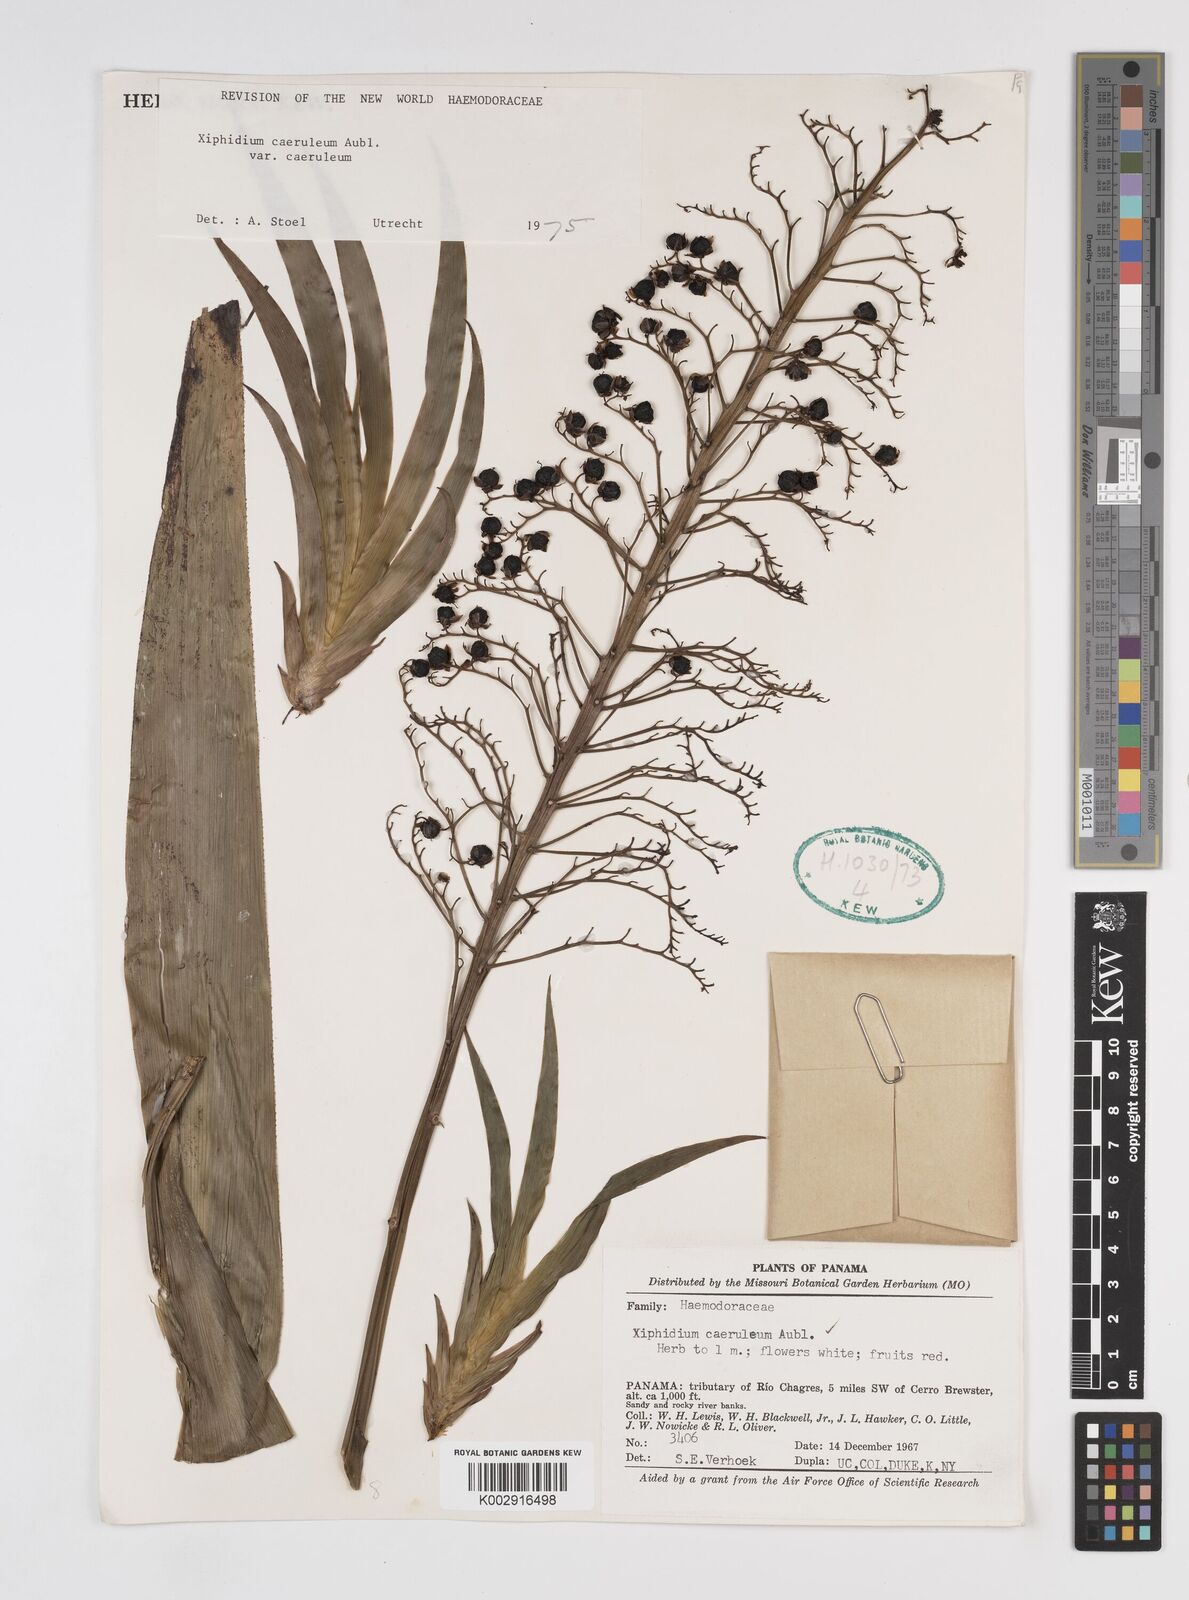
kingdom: Plantae
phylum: Tracheophyta
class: Liliopsida
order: Commelinales
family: Haemodoraceae
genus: Xiphidium
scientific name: Xiphidium caeruleum
